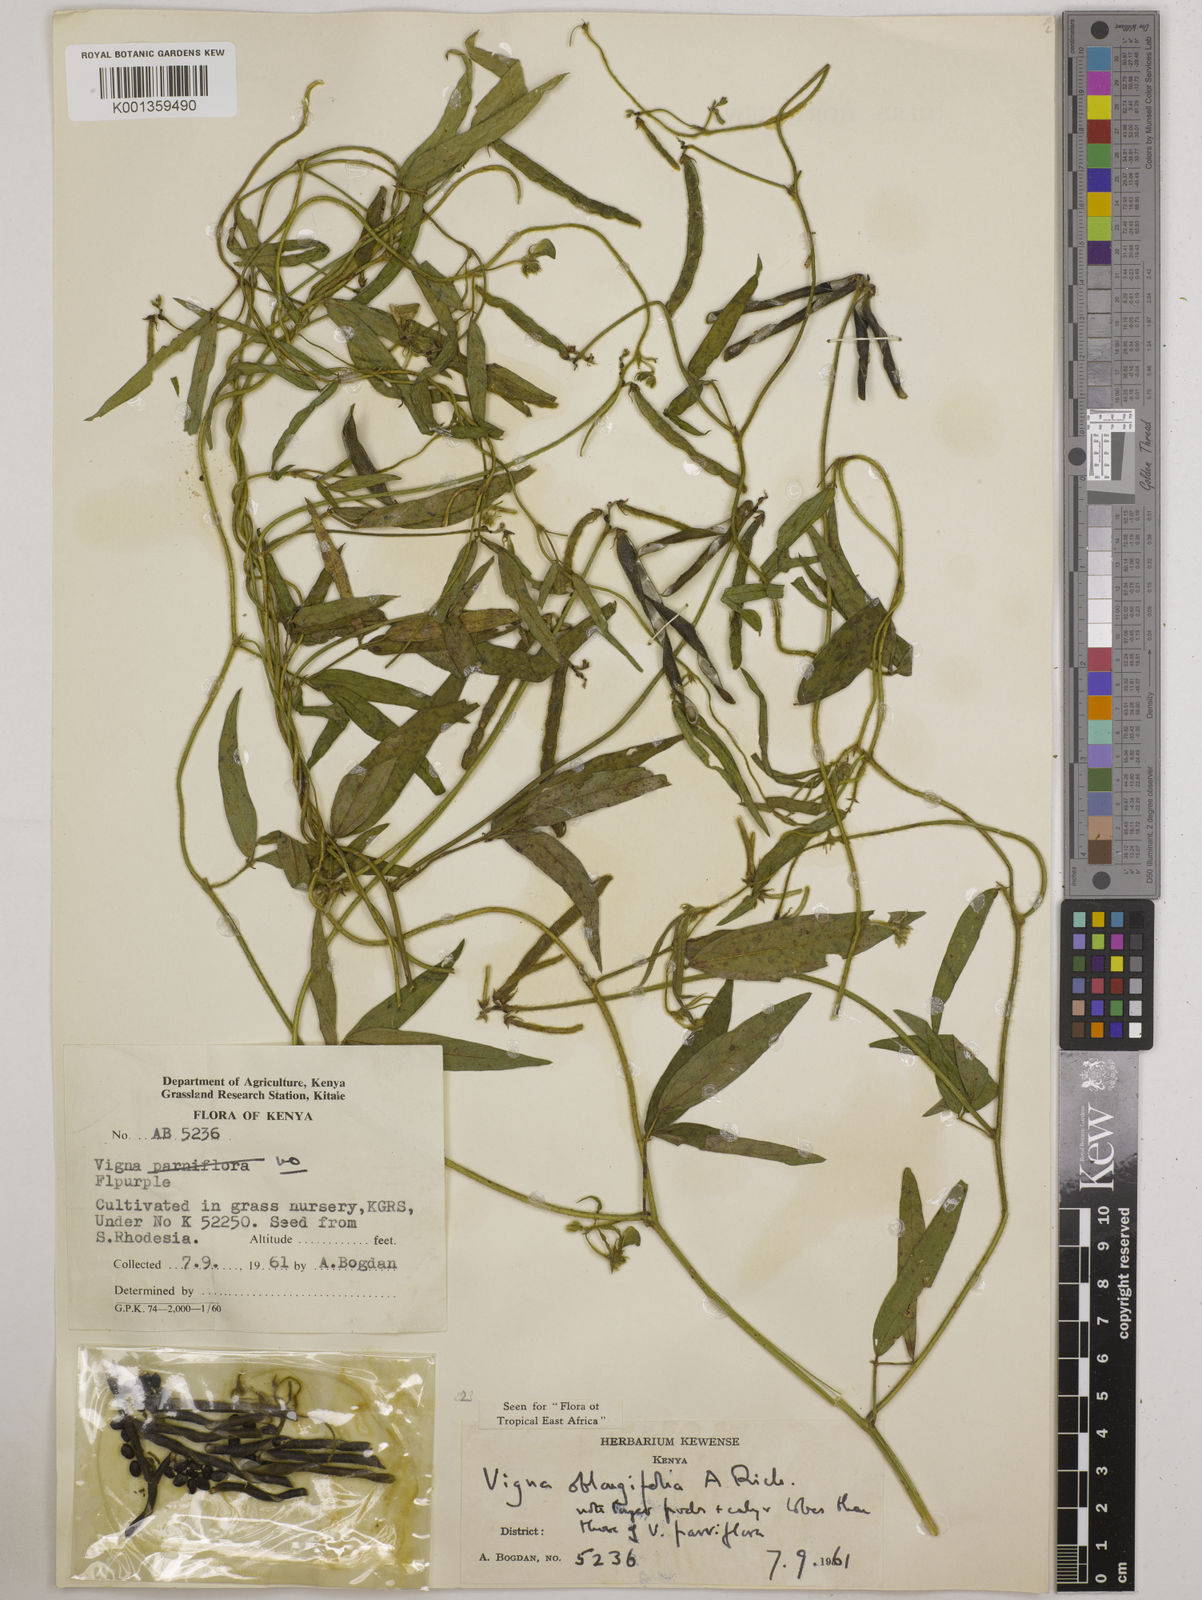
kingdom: Plantae
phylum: Tracheophyta
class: Magnoliopsida
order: Fabales
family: Fabaceae
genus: Vigna
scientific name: Vigna oblongifolia
